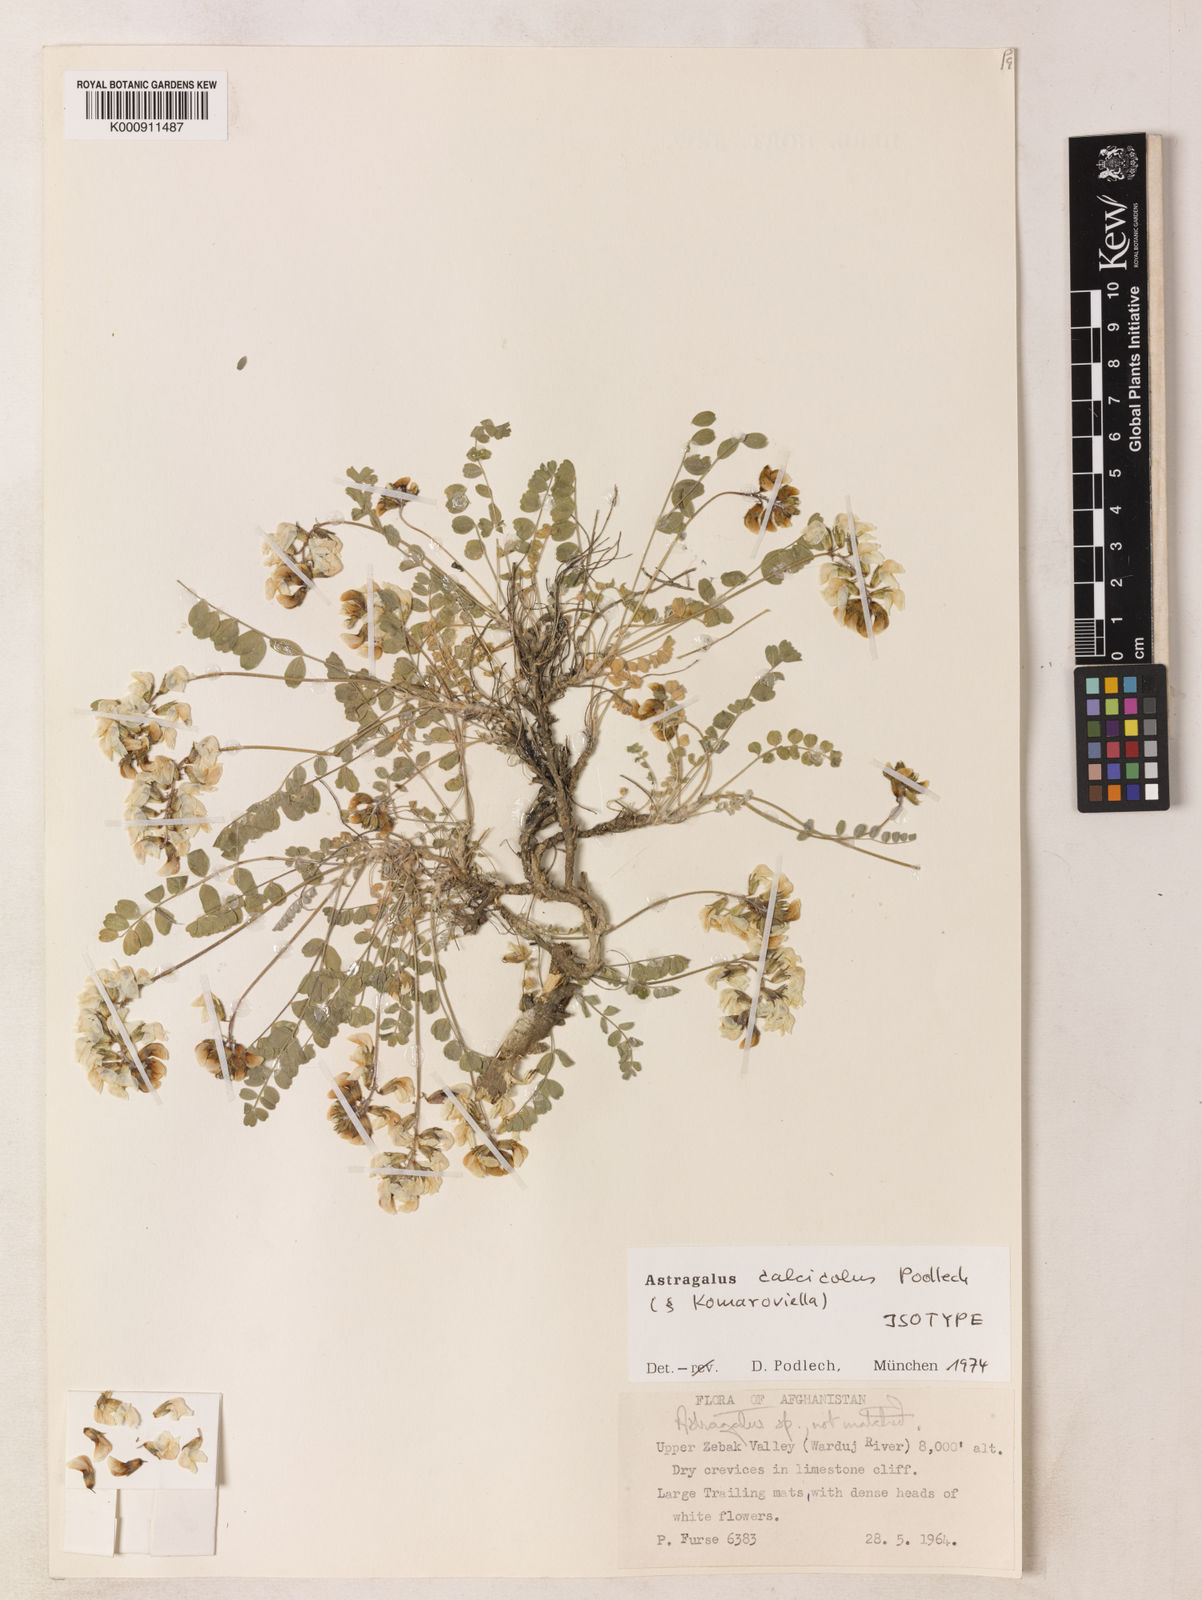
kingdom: Plantae
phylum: Tracheophyta
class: Magnoliopsida
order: Fabales
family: Fabaceae
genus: Astragalus
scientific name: Astragalus calcicola
